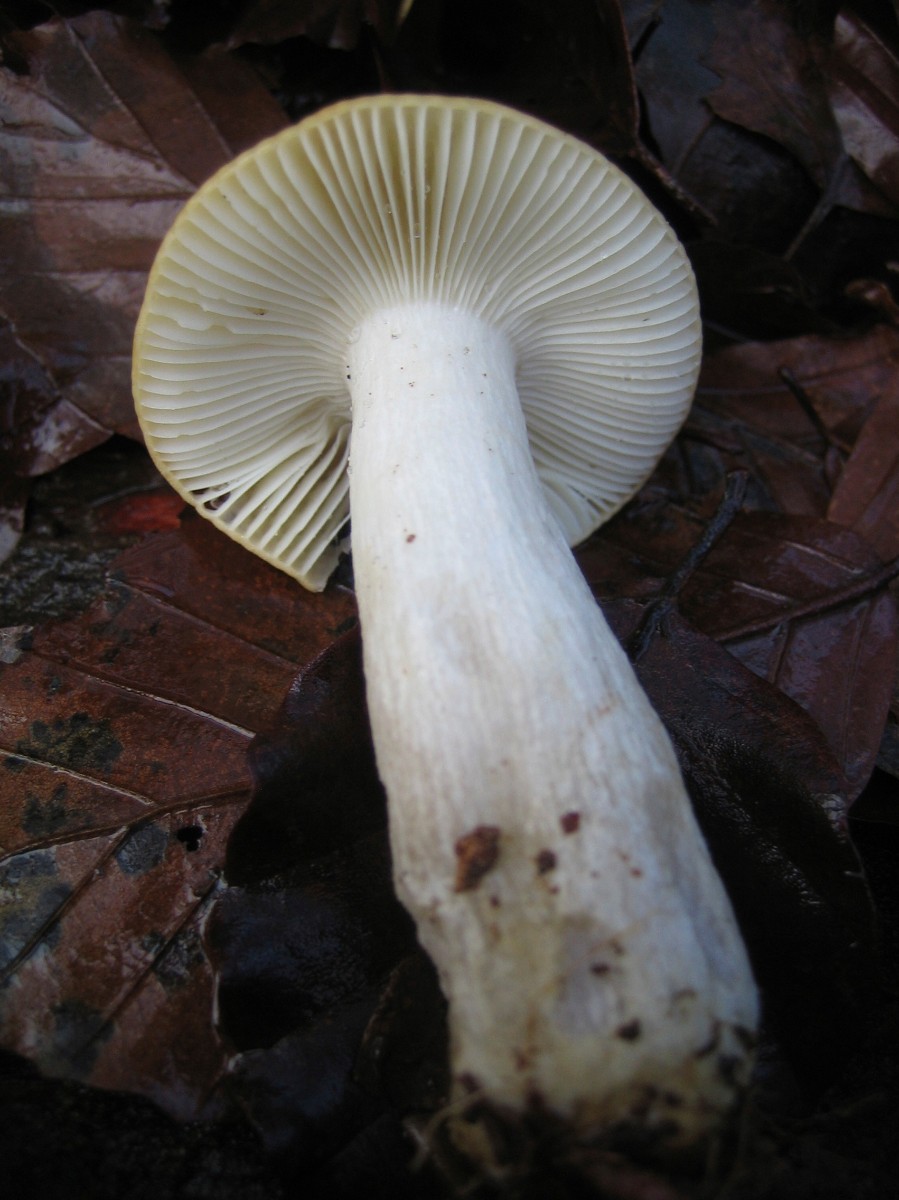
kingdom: Fungi
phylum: Basidiomycota
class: Agaricomycetes
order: Russulales
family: Russulaceae
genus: Russula
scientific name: Russula ochroleuca
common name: okkergul skørhat
